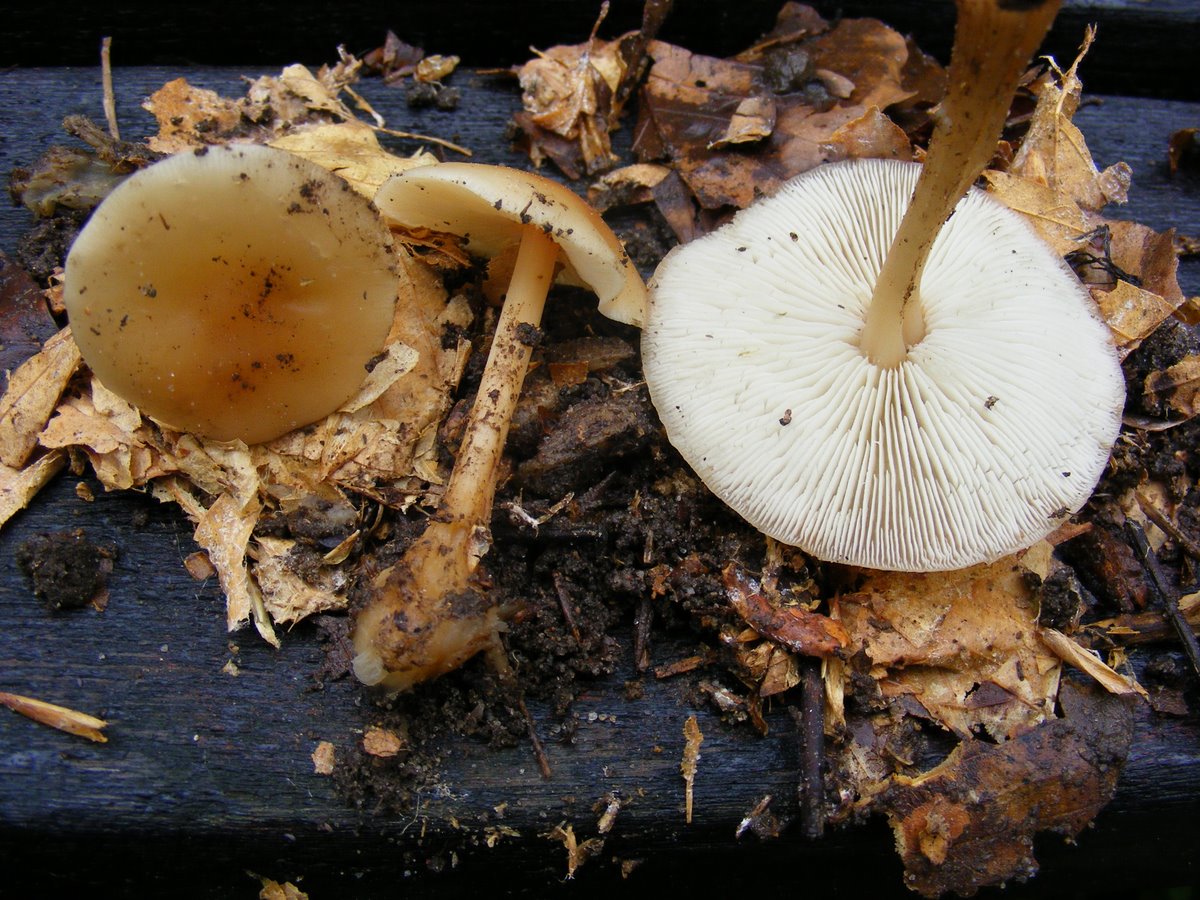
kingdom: Fungi
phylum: Basidiomycota
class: Agaricomycetes
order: Agaricales
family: Omphalotaceae
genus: Gymnopus
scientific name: Gymnopus aquosus
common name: bleg fladhat
